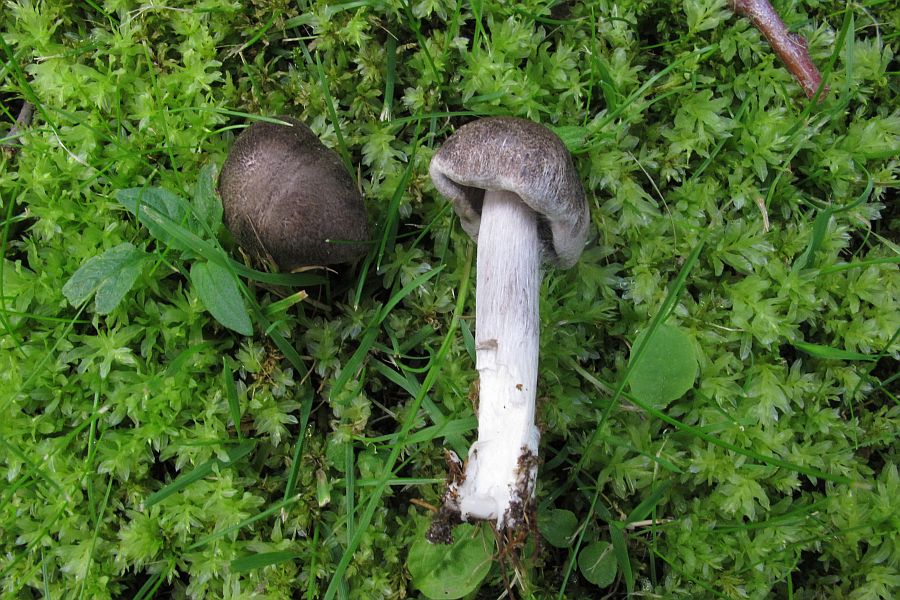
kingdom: Fungi
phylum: Basidiomycota
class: Agaricomycetes
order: Agaricales
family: Tricholomataceae
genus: Tricholoma
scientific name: Tricholoma argyraceum
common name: slør-ridderhat
